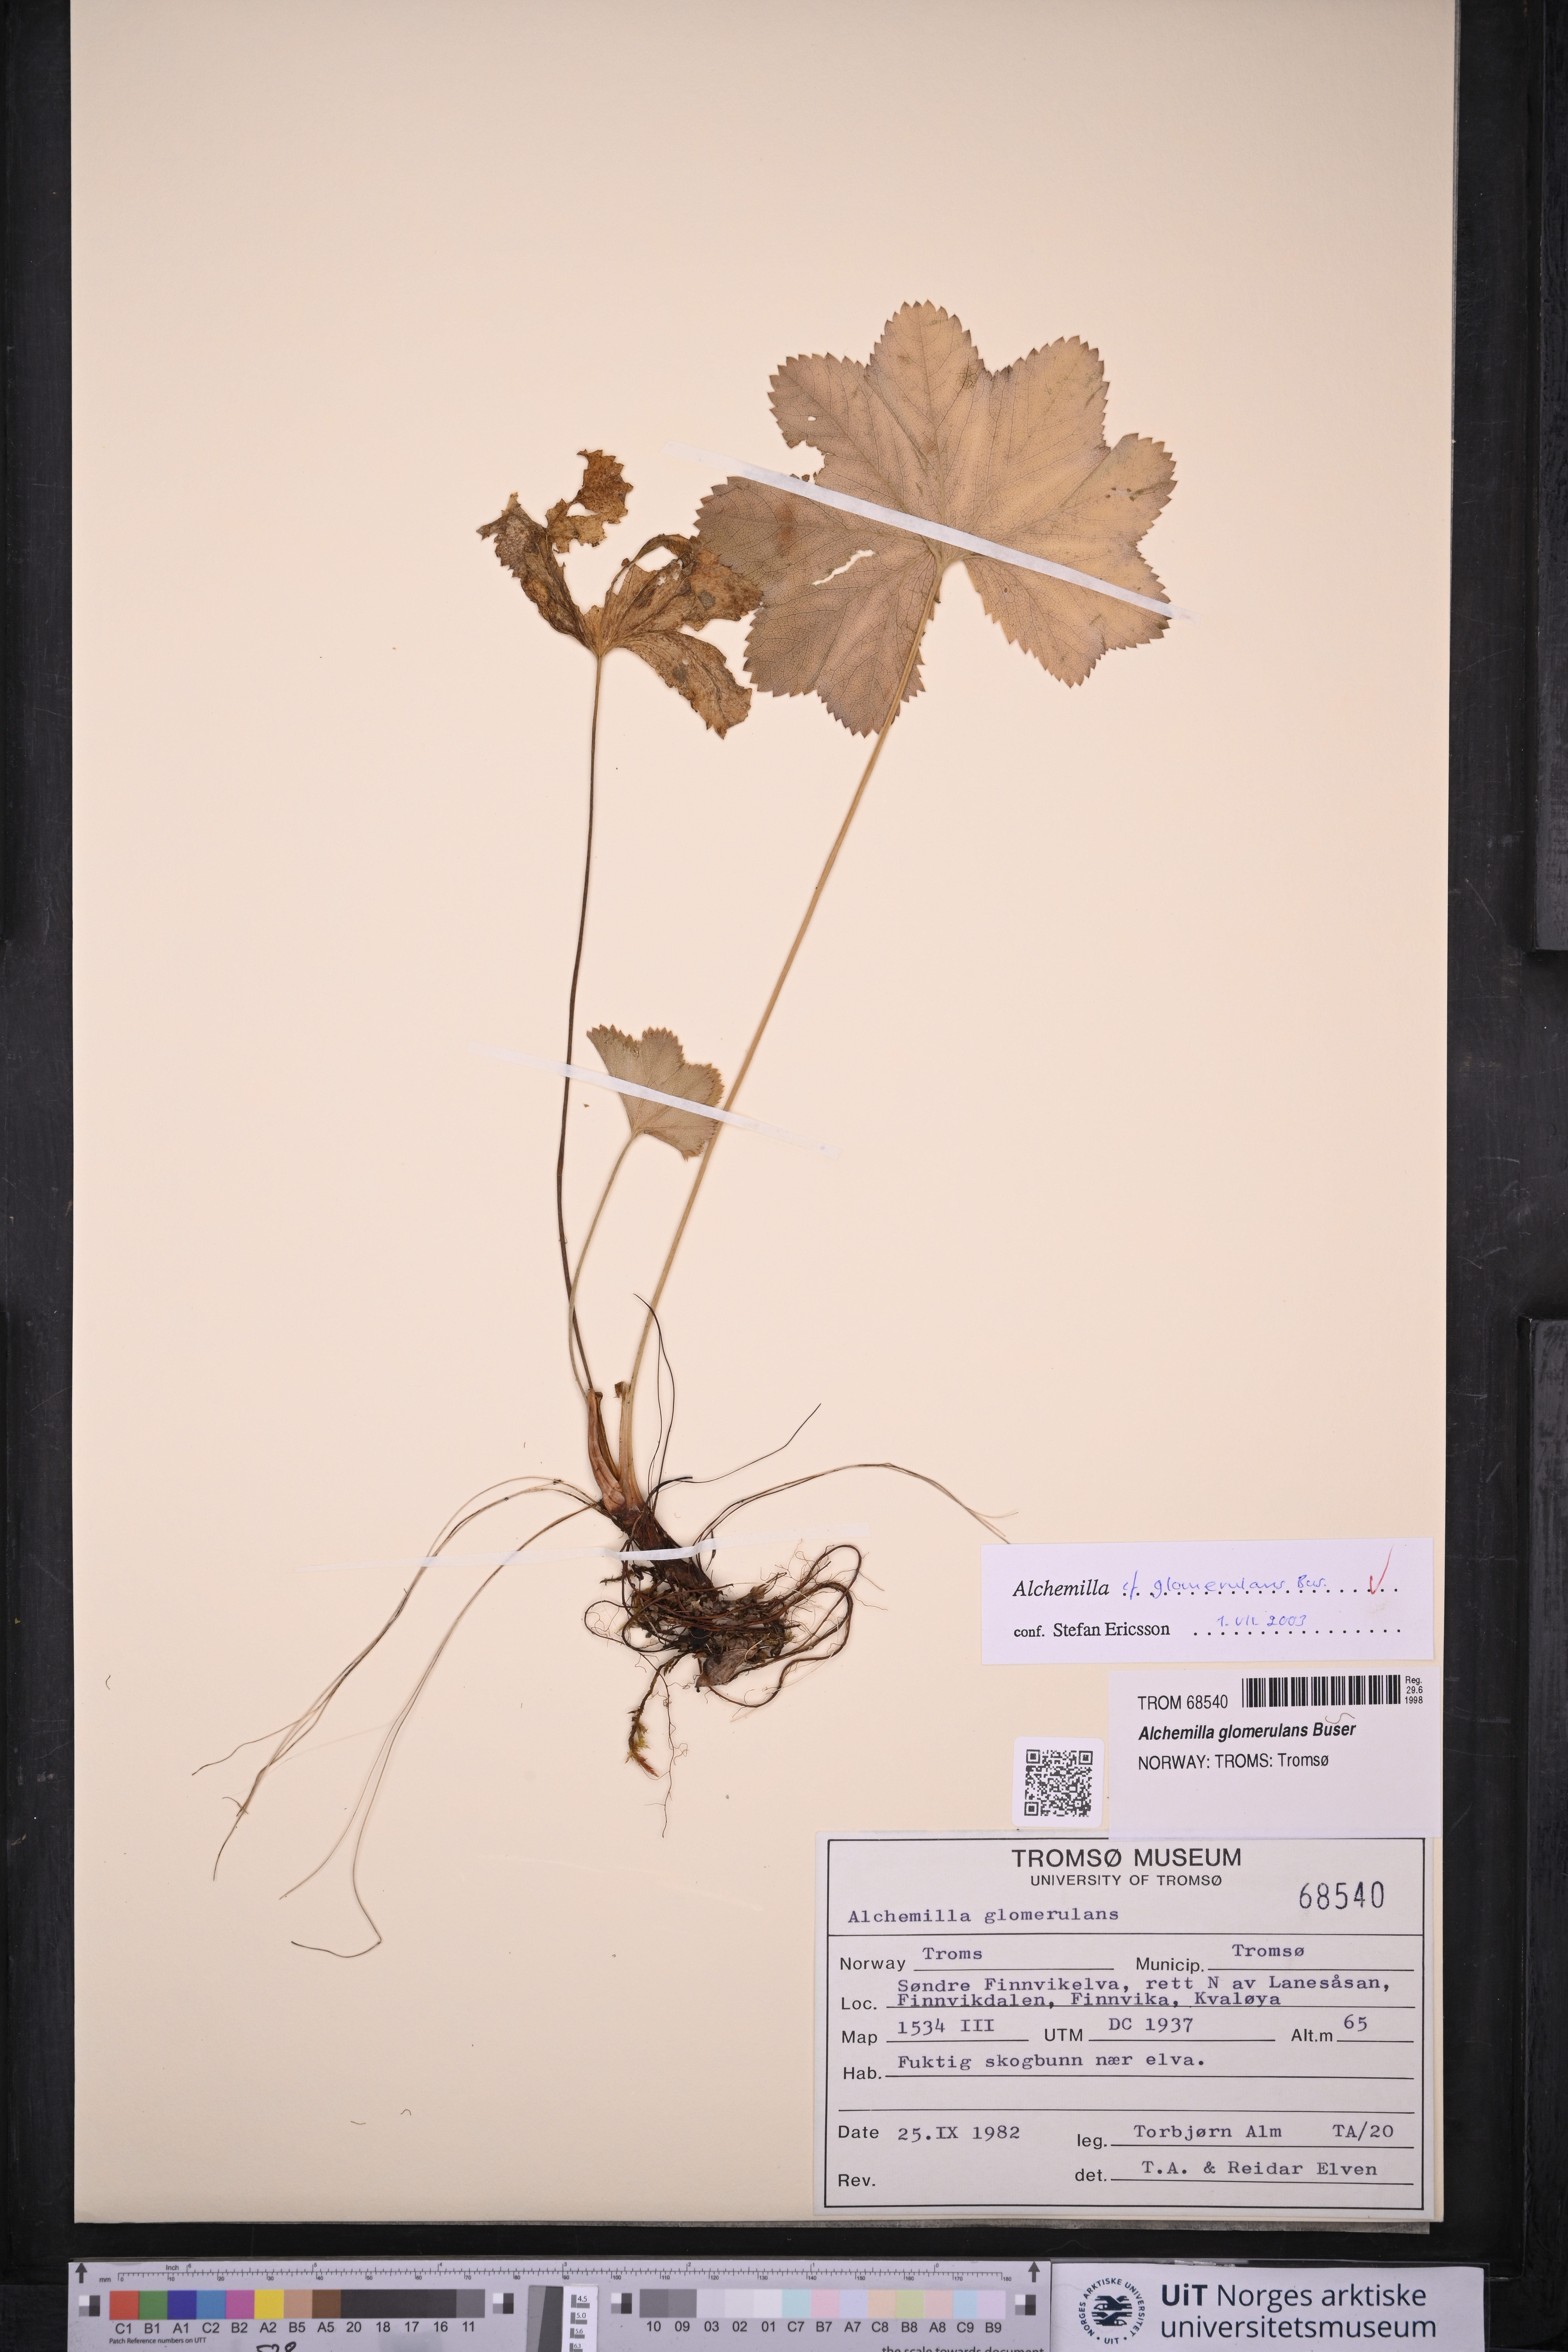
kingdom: Plantae
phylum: Tracheophyta
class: Magnoliopsida
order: Rosales
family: Rosaceae
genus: Alchemilla
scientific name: Alchemilla glomerulans
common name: Clustered lady's mantle
